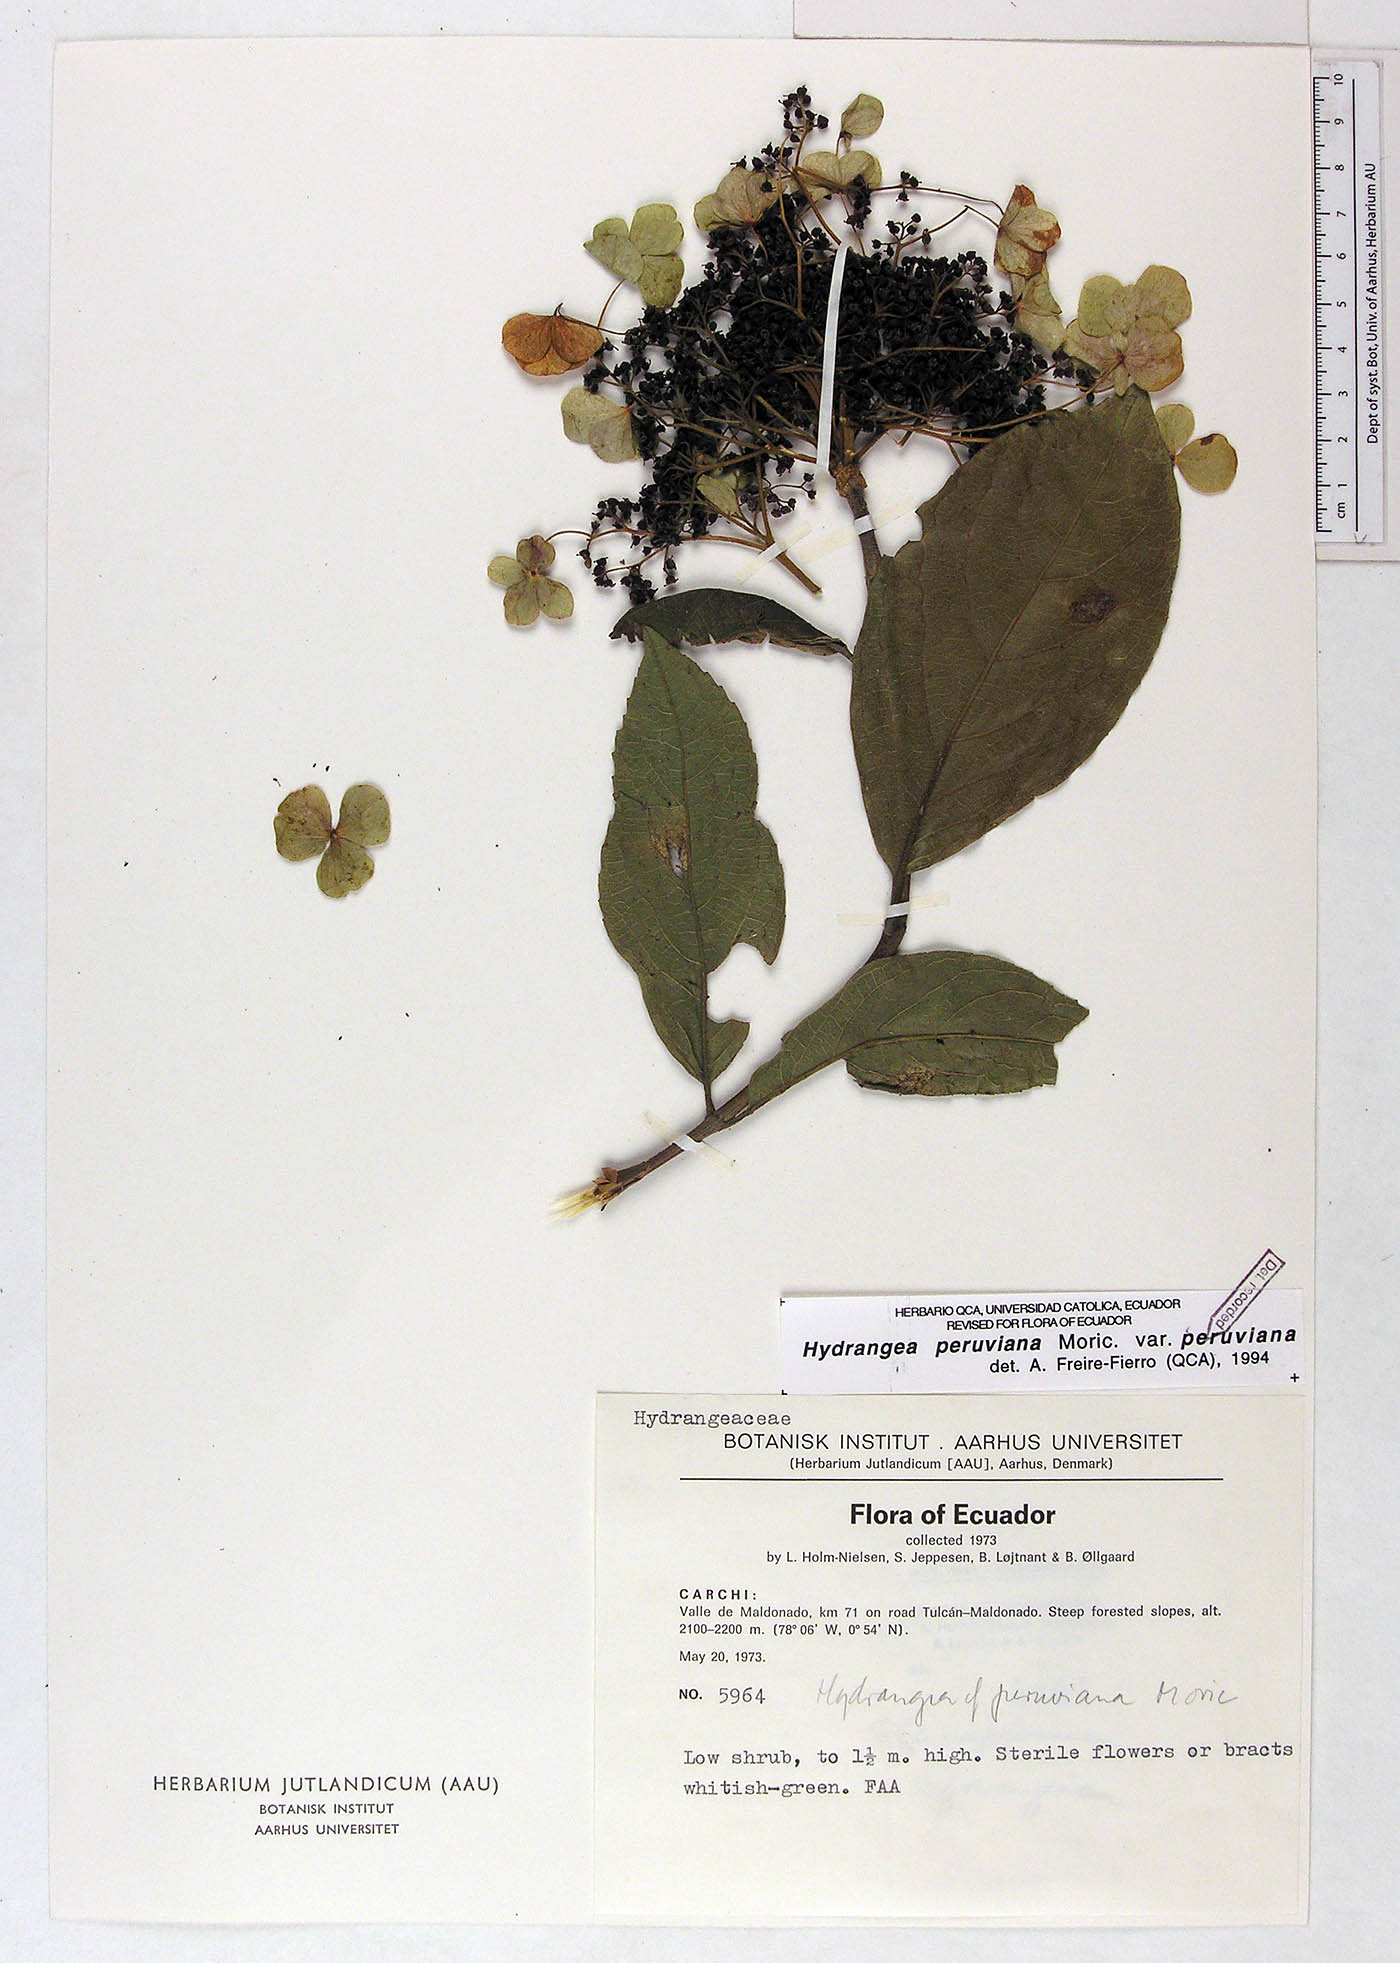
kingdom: Plantae
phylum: Tracheophyta
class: Magnoliopsida
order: Cornales
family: Hydrangeaceae
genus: Hydrangea
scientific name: Hydrangea peruviana
